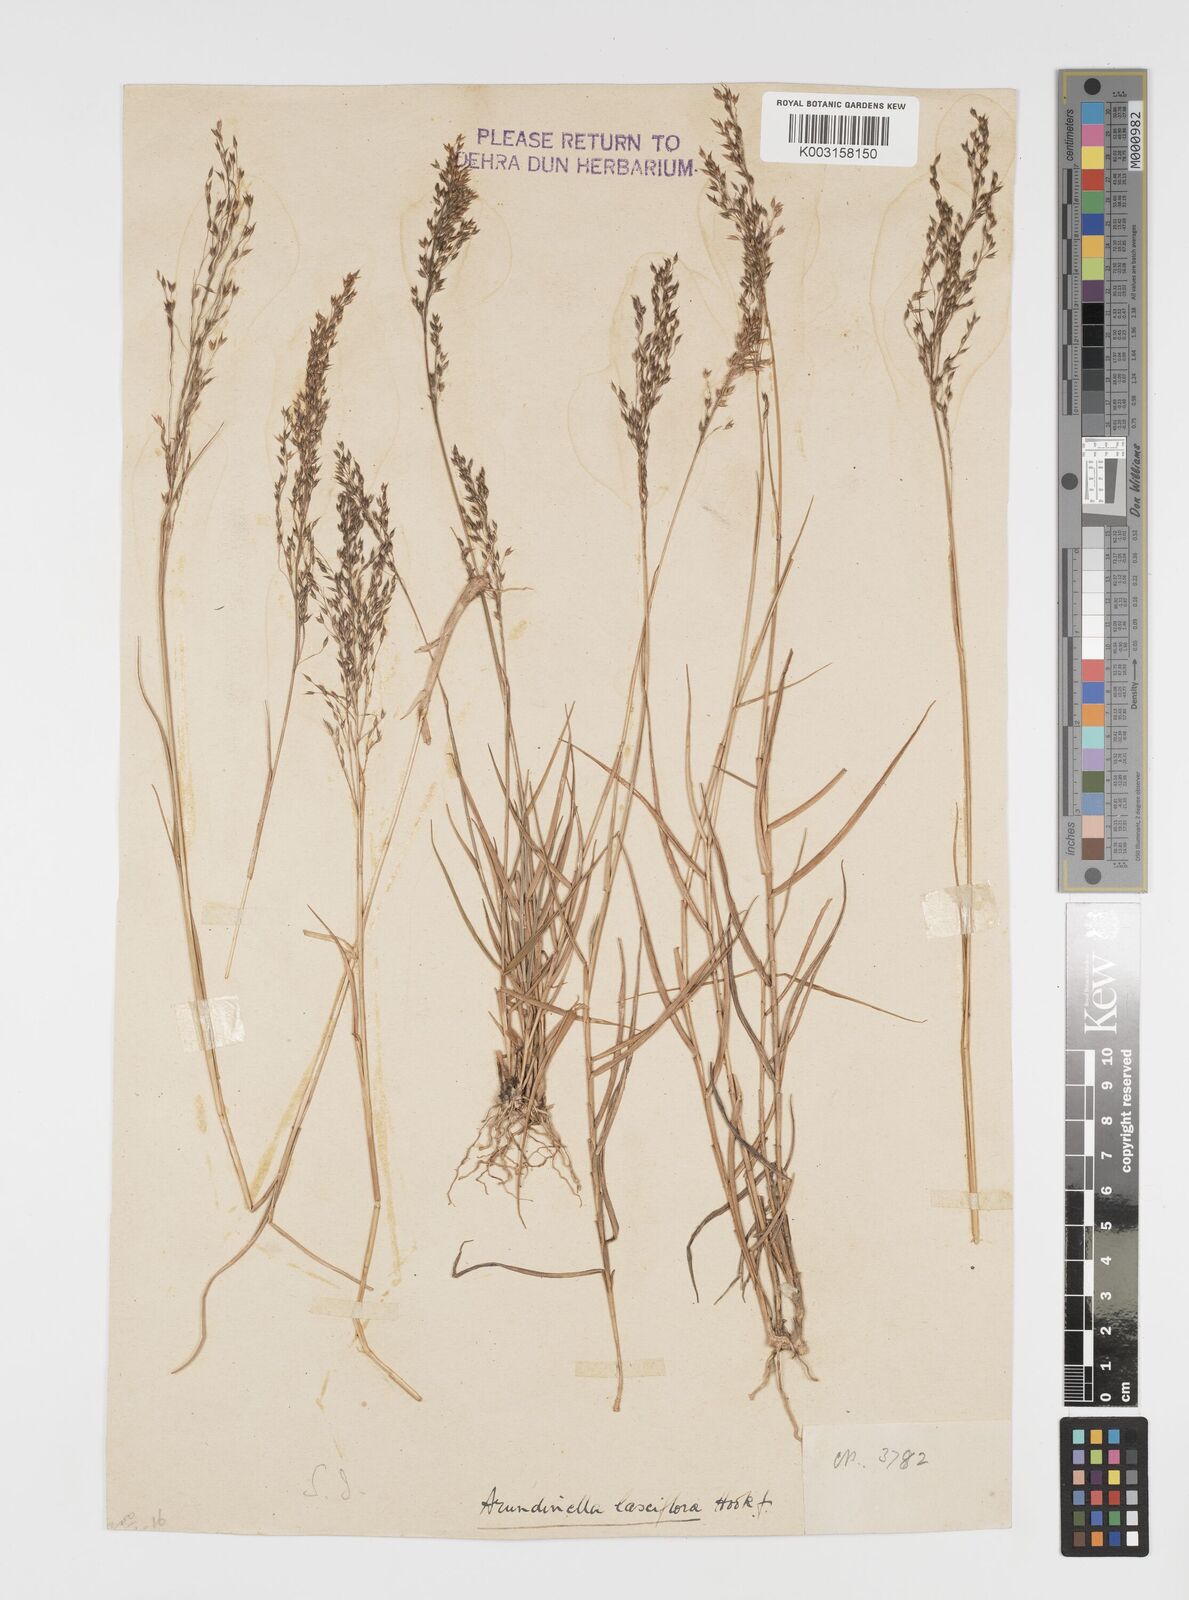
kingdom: Plantae
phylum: Tracheophyta
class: Liliopsida
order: Poales
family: Poaceae
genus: Arundinella
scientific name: Arundinella laxiflora
